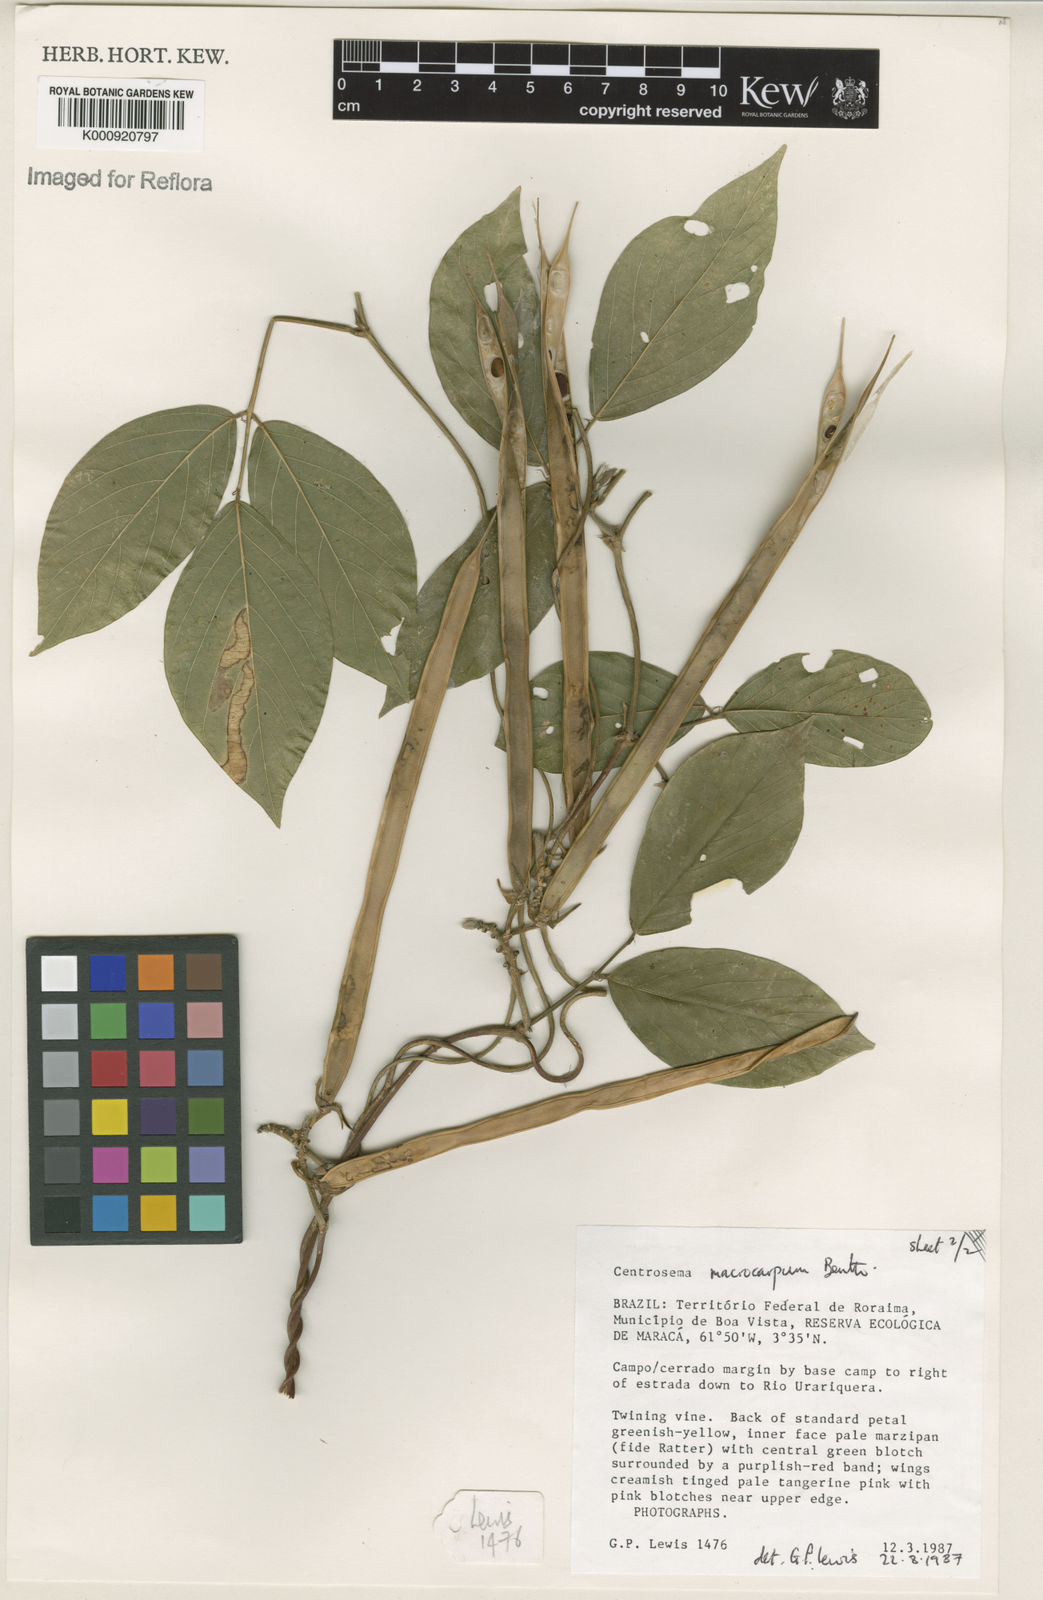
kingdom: Plantae
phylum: Tracheophyta
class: Magnoliopsida
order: Fabales
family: Fabaceae
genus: Centrosema
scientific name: Centrosema macrocarpum
